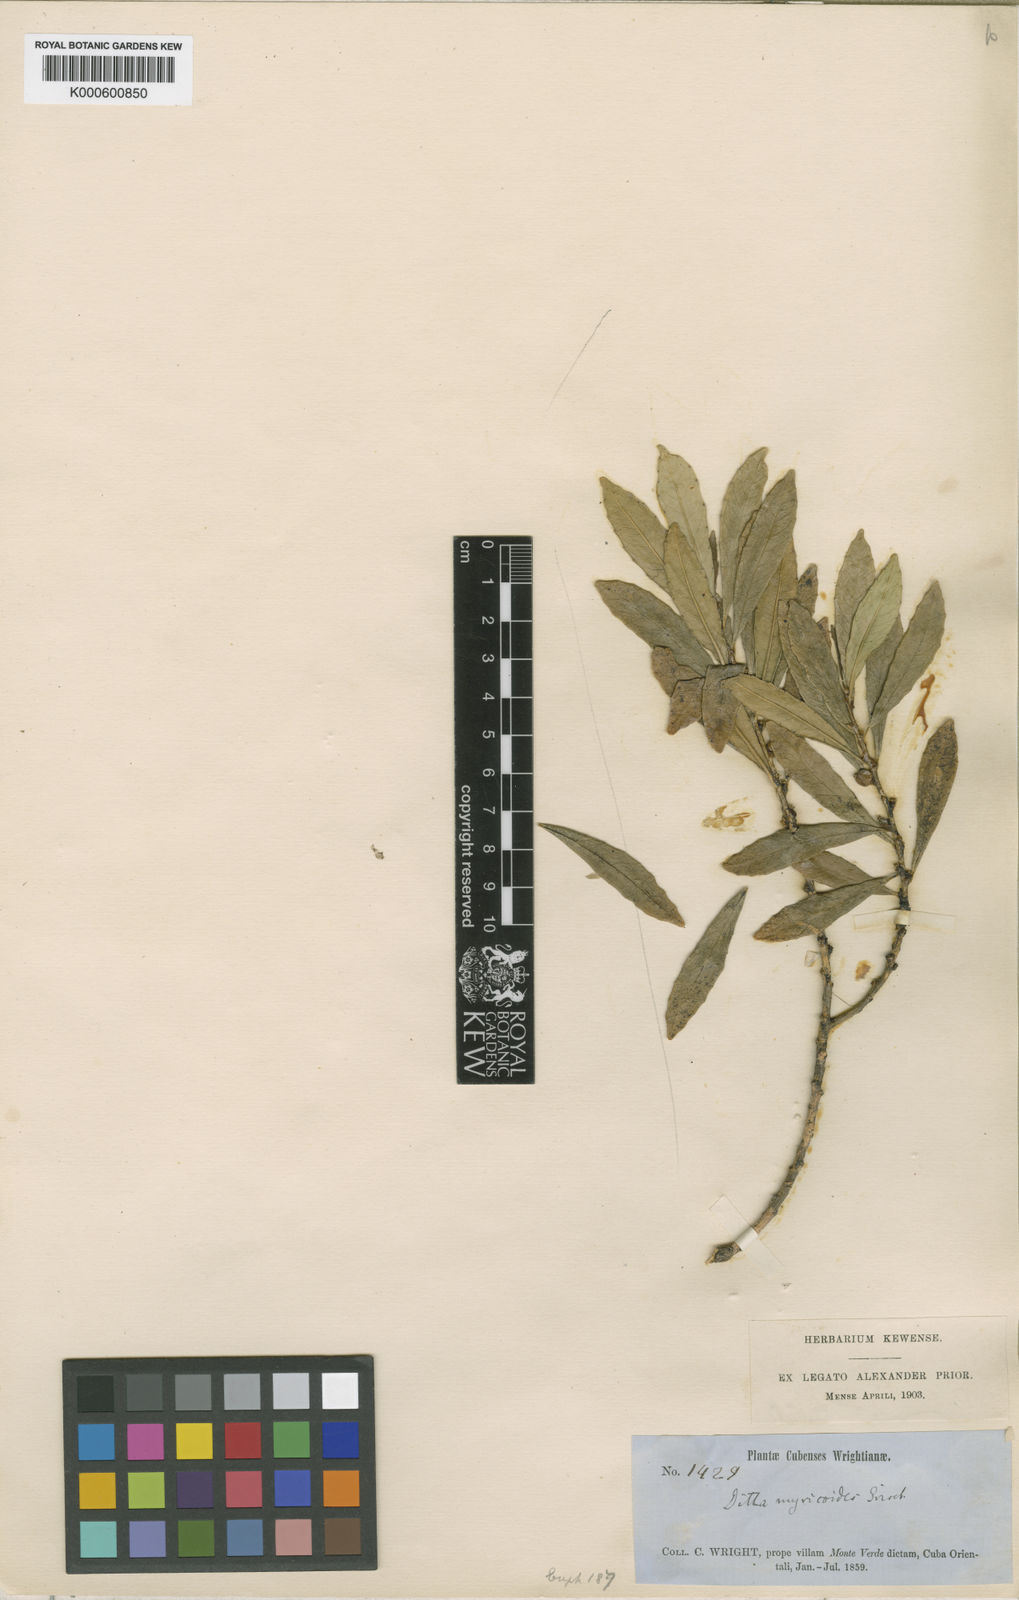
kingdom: Plantae
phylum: Tracheophyta
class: Magnoliopsida
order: Malpighiales
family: Euphorbiaceae
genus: Ditta
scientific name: Ditta myricoides
